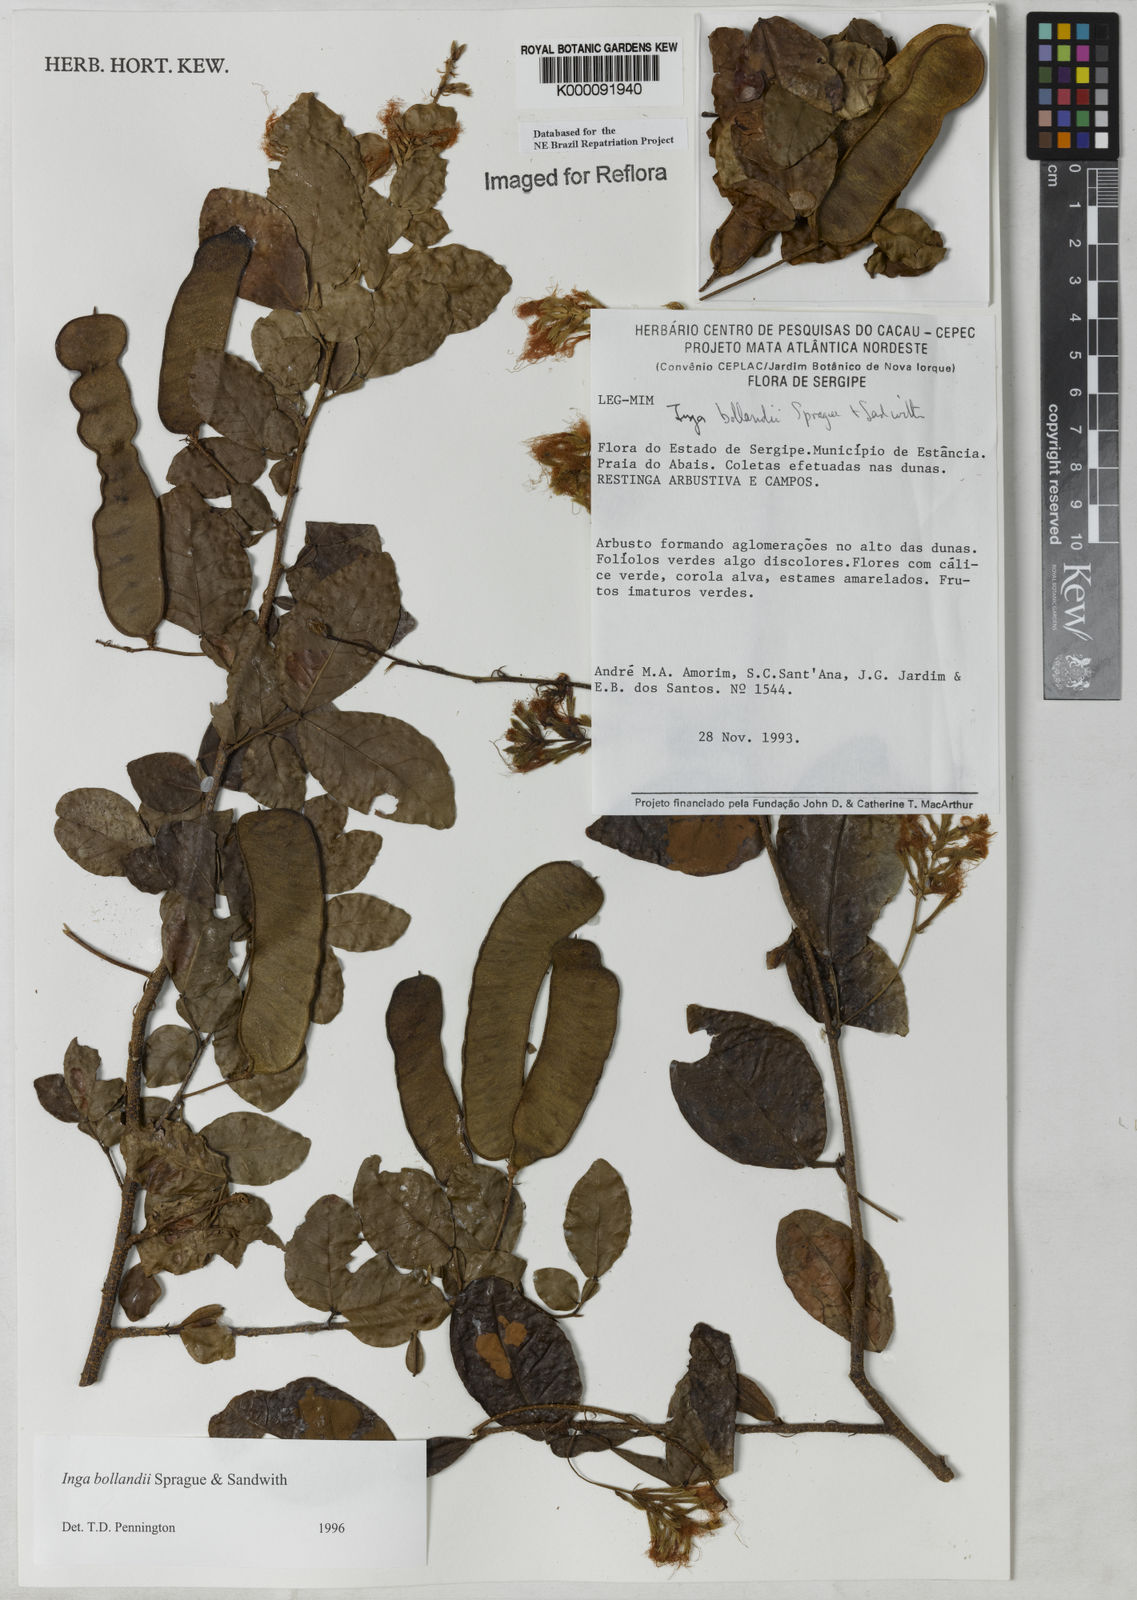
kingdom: Plantae
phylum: Tracheophyta
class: Magnoliopsida
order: Fabales
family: Fabaceae
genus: Inga
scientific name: Inga bollandii
